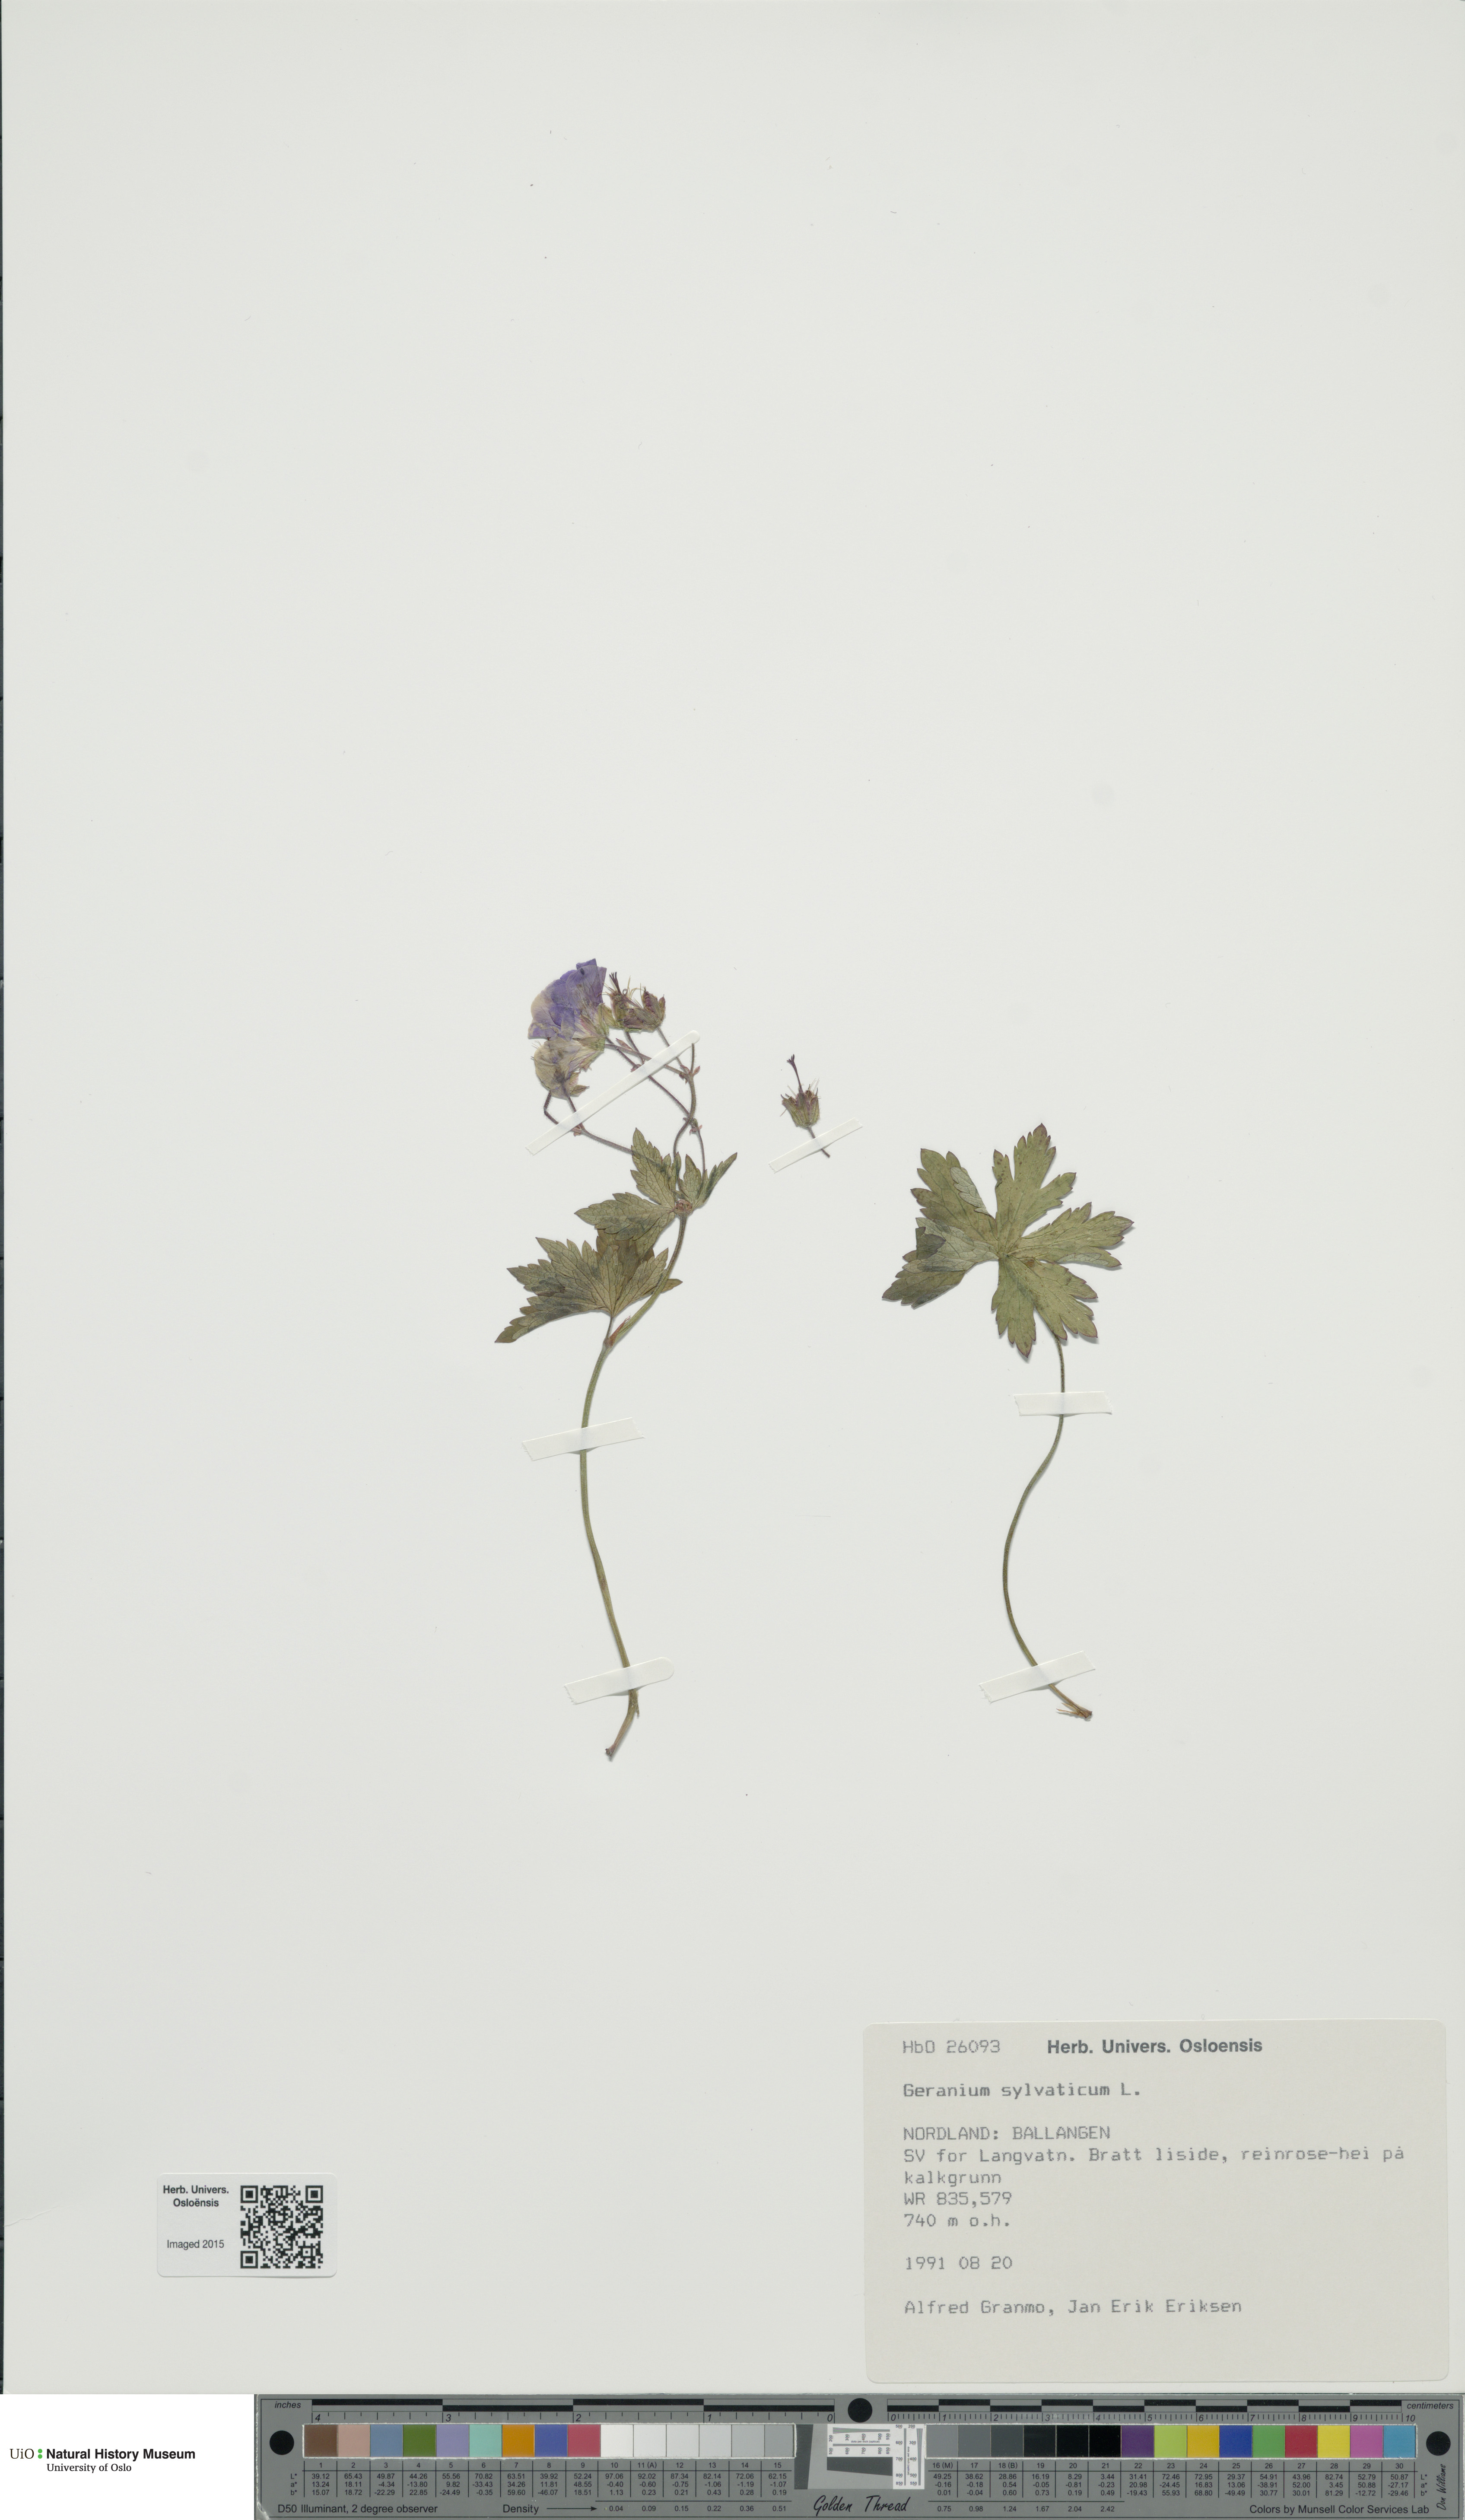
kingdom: Plantae
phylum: Tracheophyta
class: Magnoliopsida
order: Geraniales
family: Geraniaceae
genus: Geranium
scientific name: Geranium sylvaticum
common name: Wood crane's-bill
